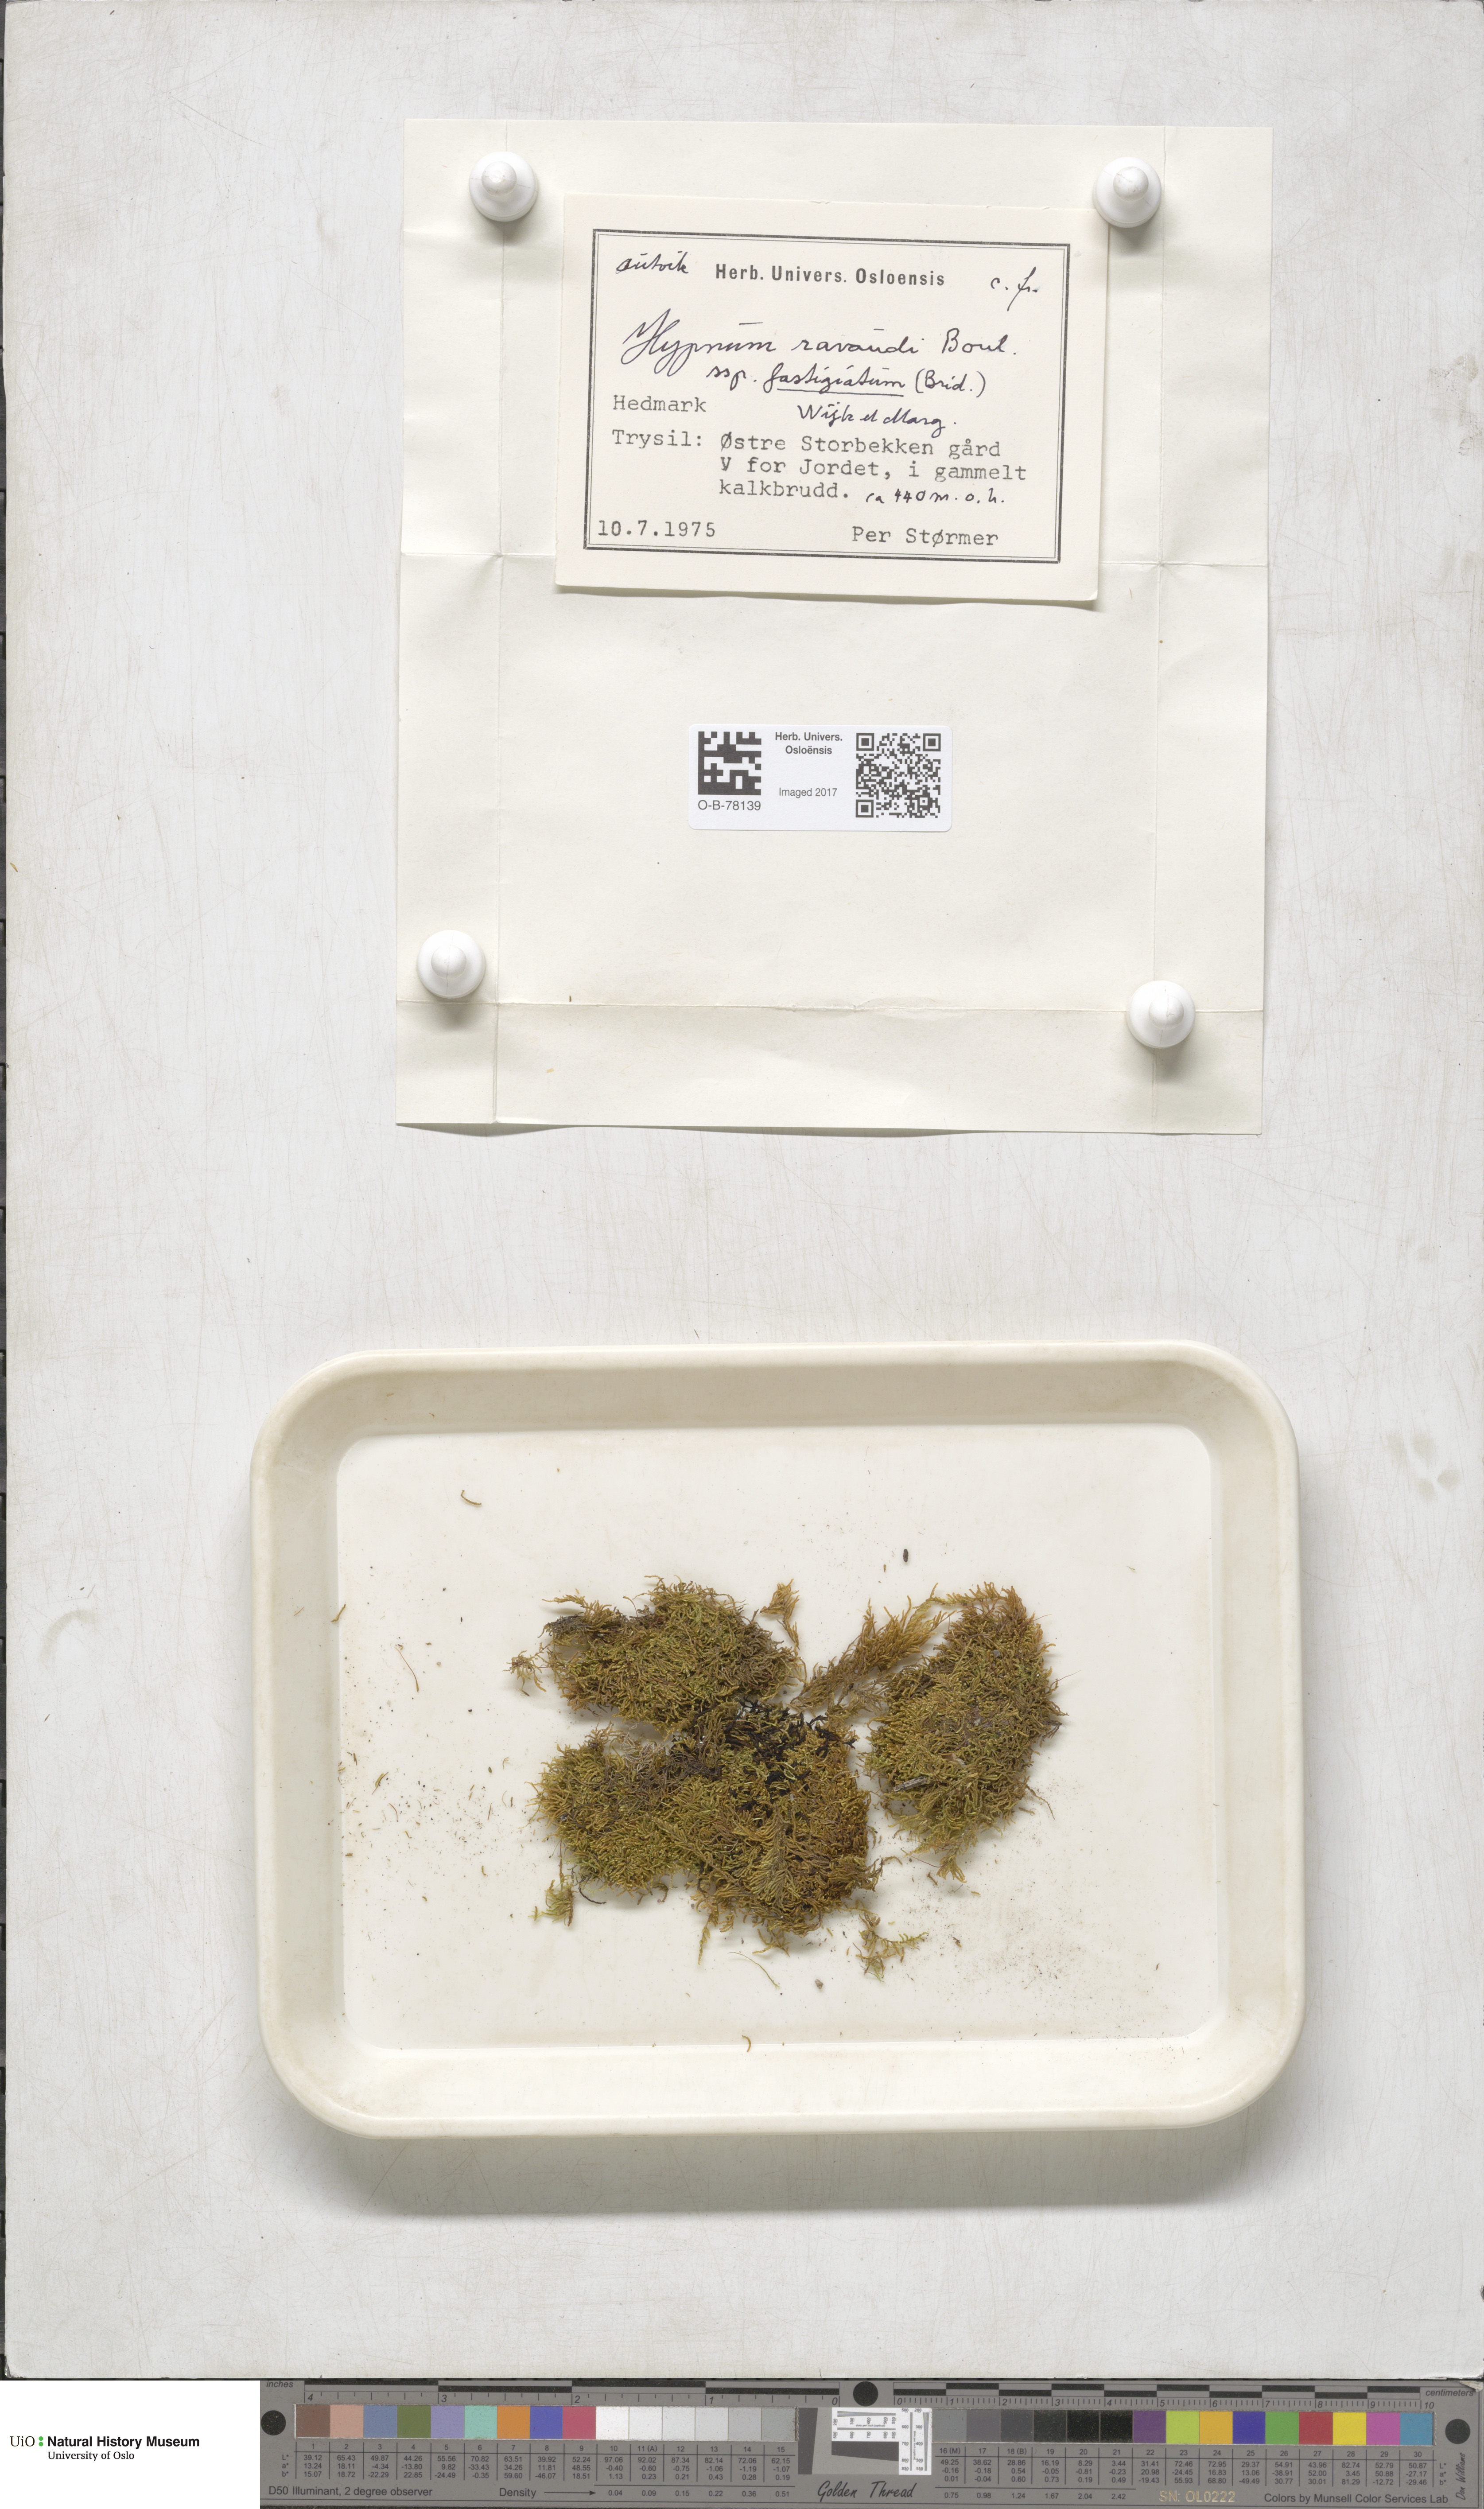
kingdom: Plantae
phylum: Bryophyta
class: Bryopsida
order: Hypnales
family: Amblystegiaceae
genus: Drepanium
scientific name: Drepanium fastigiatum
